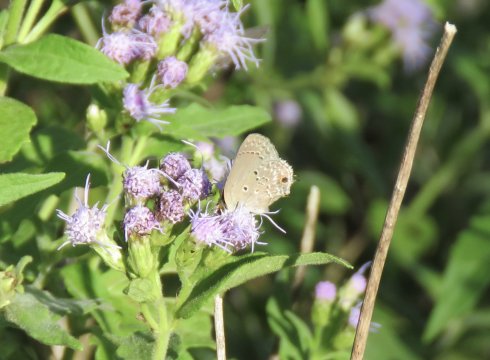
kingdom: Animalia
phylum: Arthropoda
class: Insecta
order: Lepidoptera
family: Lycaenidae
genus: Callicista
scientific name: Callicista columella
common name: Mallow Scrub-Hairstreak
